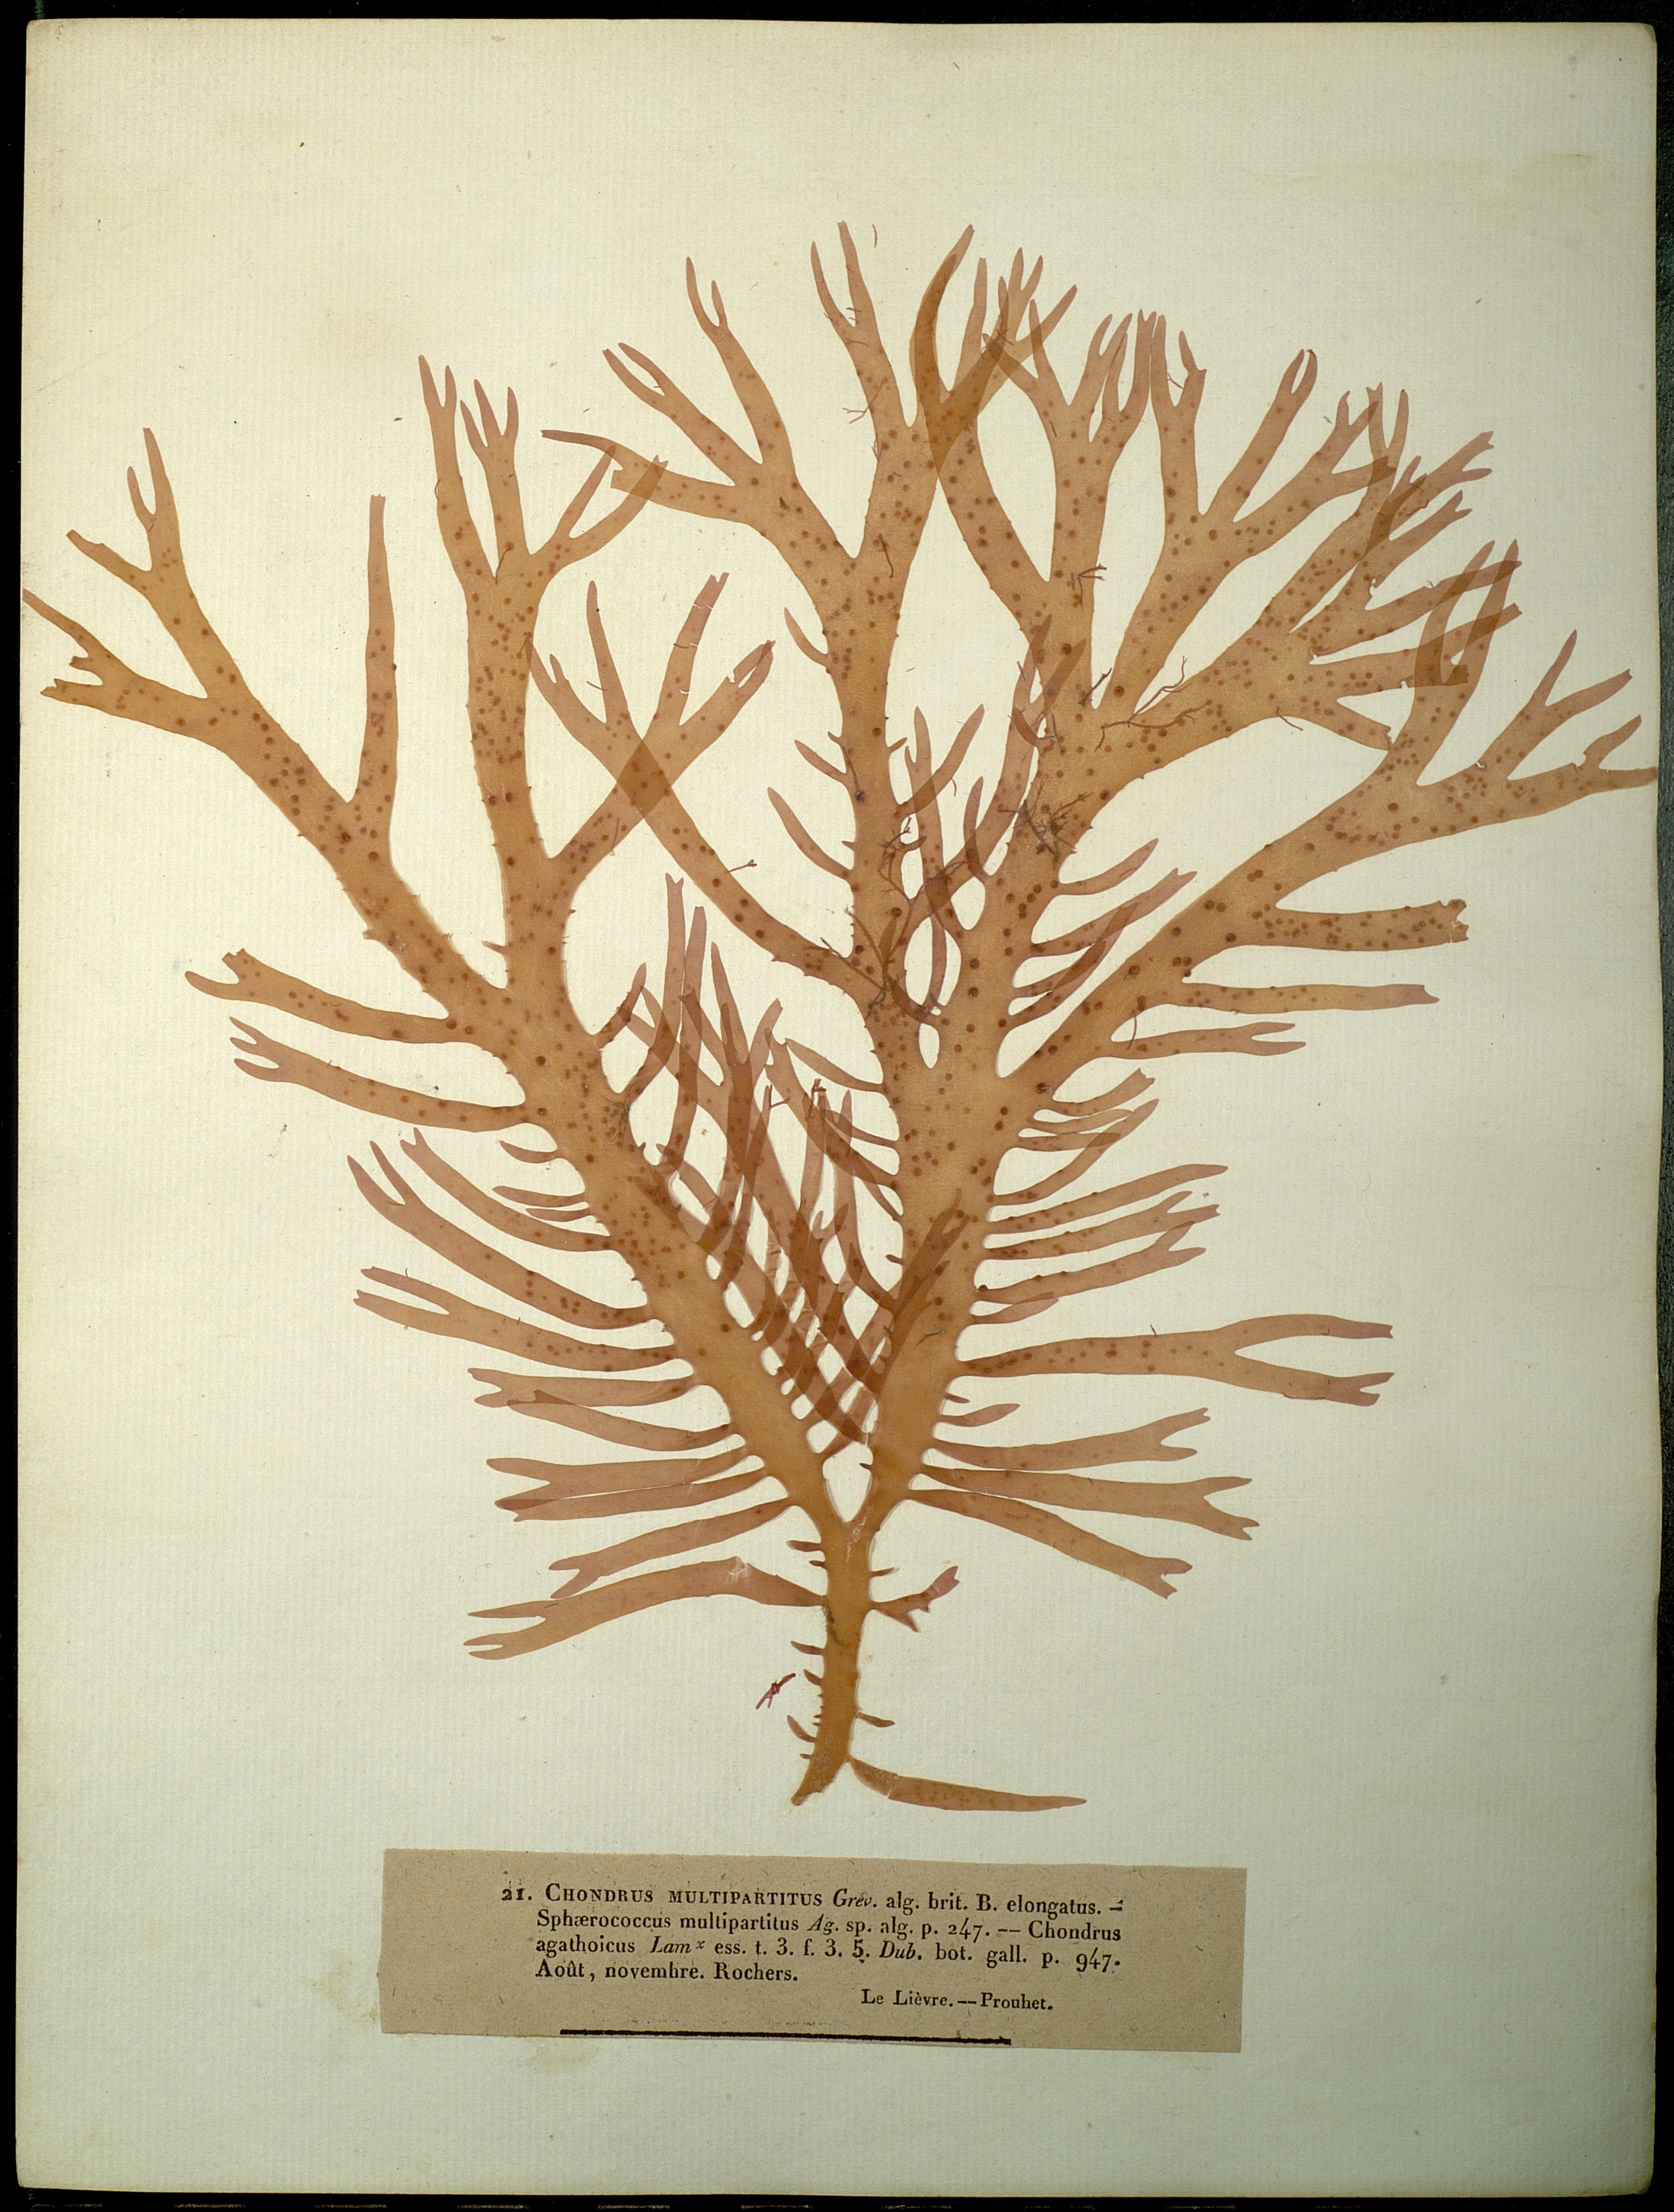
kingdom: Plantae
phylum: Rhodophyta
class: Florideophyceae
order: Gracilariales
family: Gracilariaceae
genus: Gracilaria
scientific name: Gracilaria multipartita
